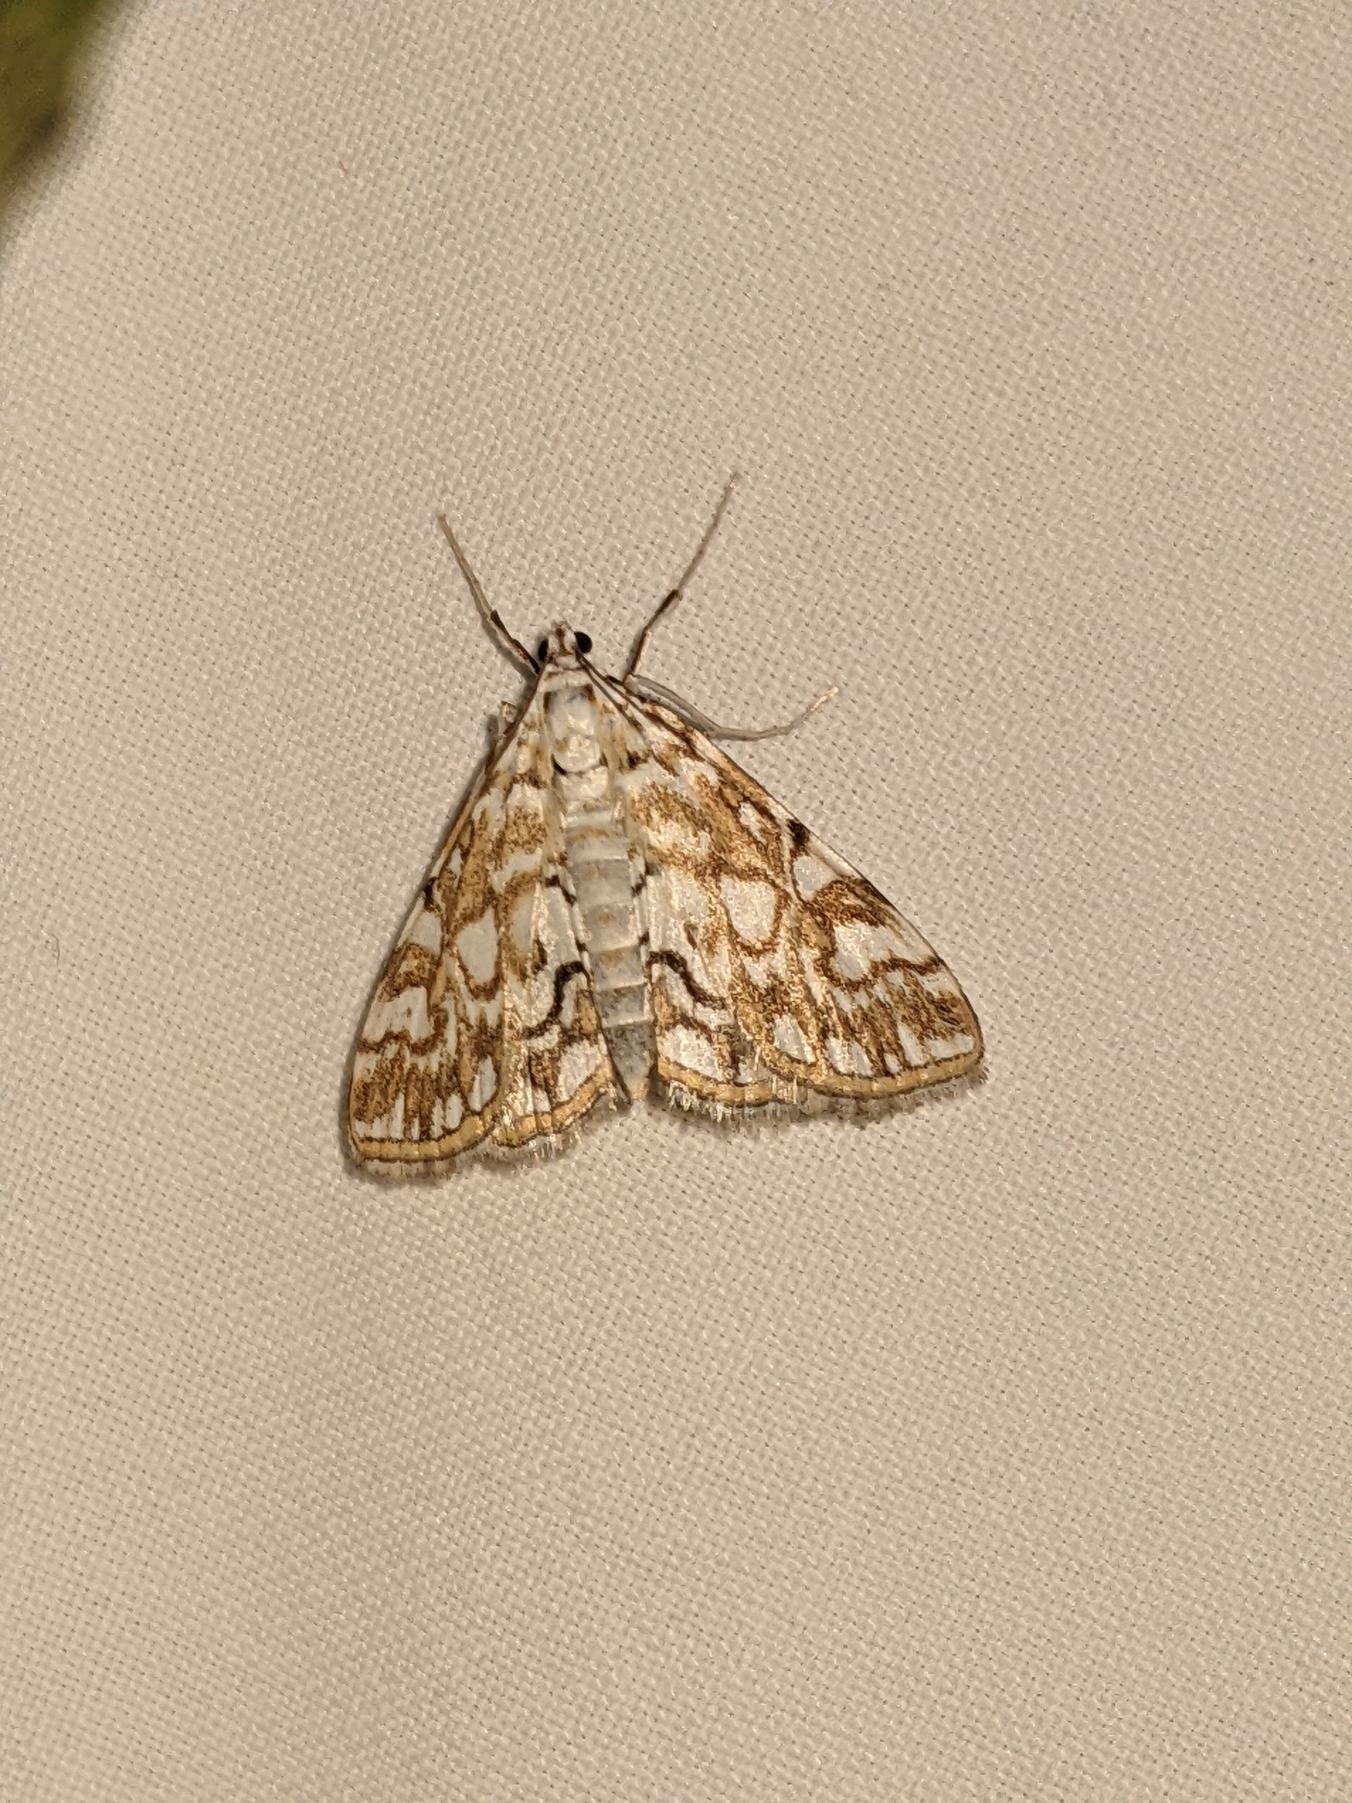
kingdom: Animalia
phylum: Arthropoda
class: Insecta
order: Lepidoptera
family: Crambidae
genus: Elophila
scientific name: Elophila nymphaeata
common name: Åkandehalvmøl
